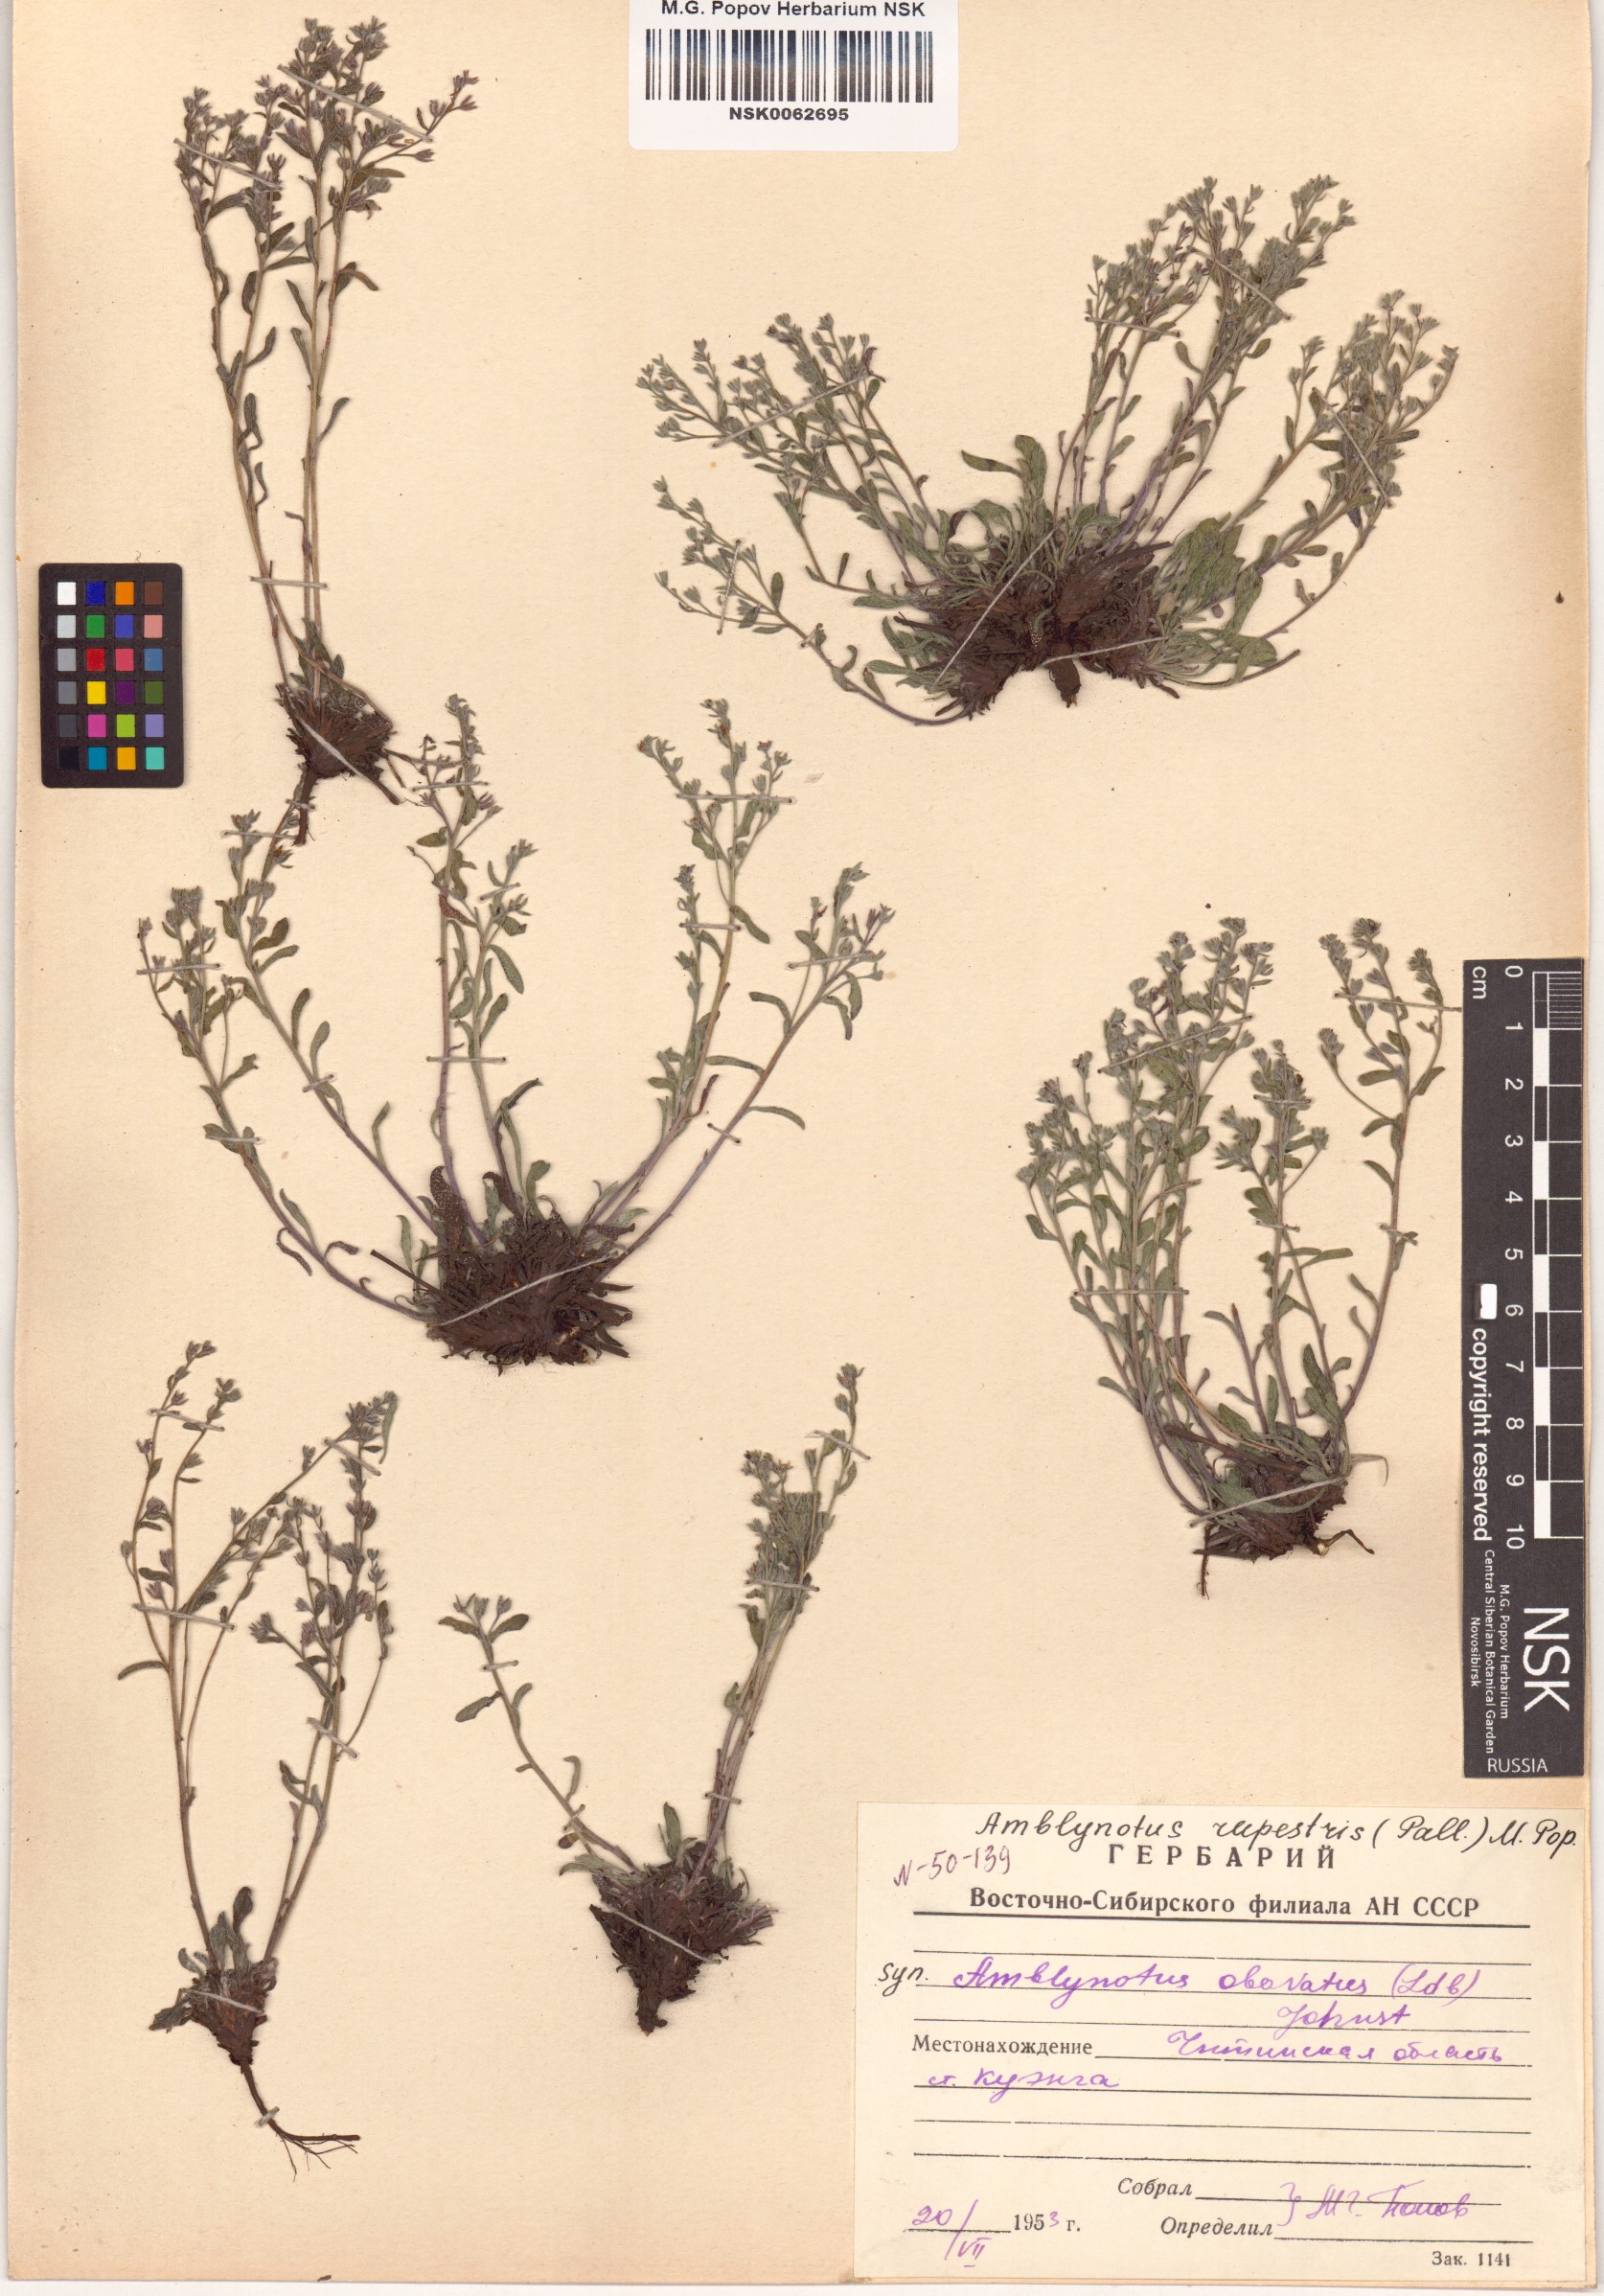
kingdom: Plantae
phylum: Tracheophyta
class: Magnoliopsida
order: Boraginales
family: Boraginaceae
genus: Eritrichium
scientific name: Eritrichium rupestre
